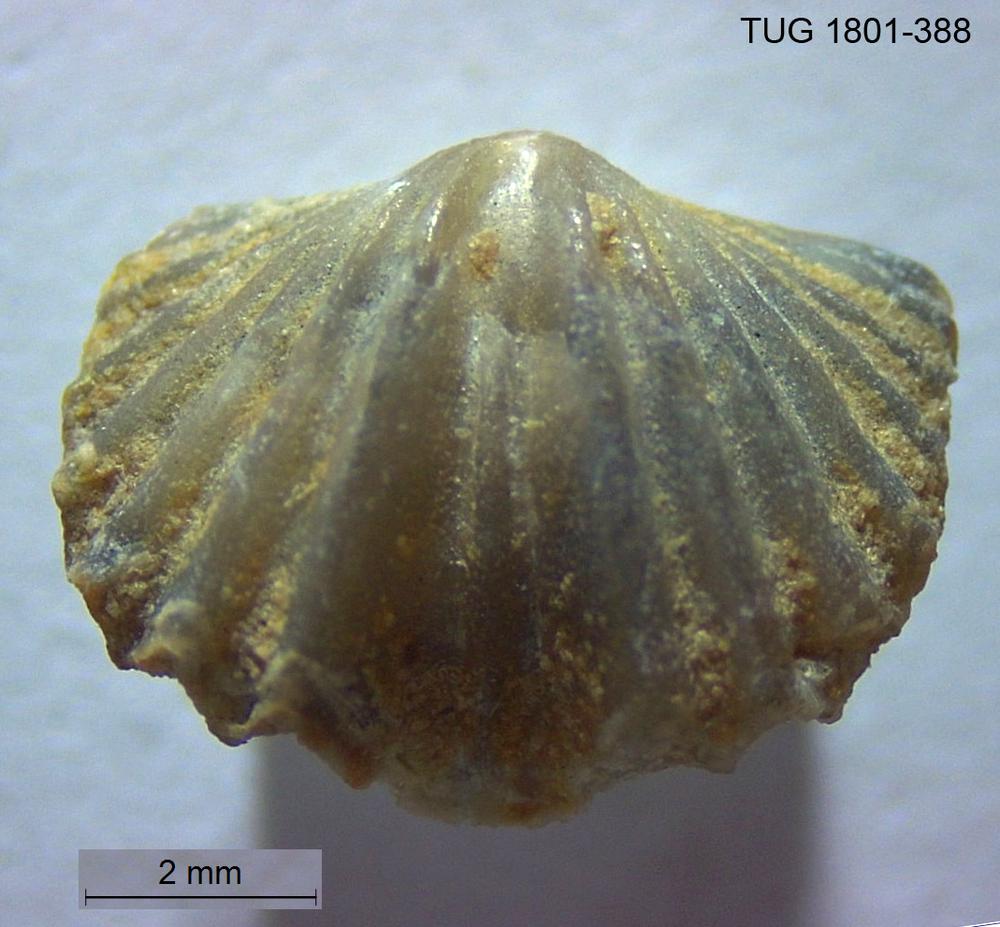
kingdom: Animalia
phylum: Brachiopoda
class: Rhynchonellata
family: Plectorthidae
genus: Platystrophia
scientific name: Platystrophia crassoplicata
